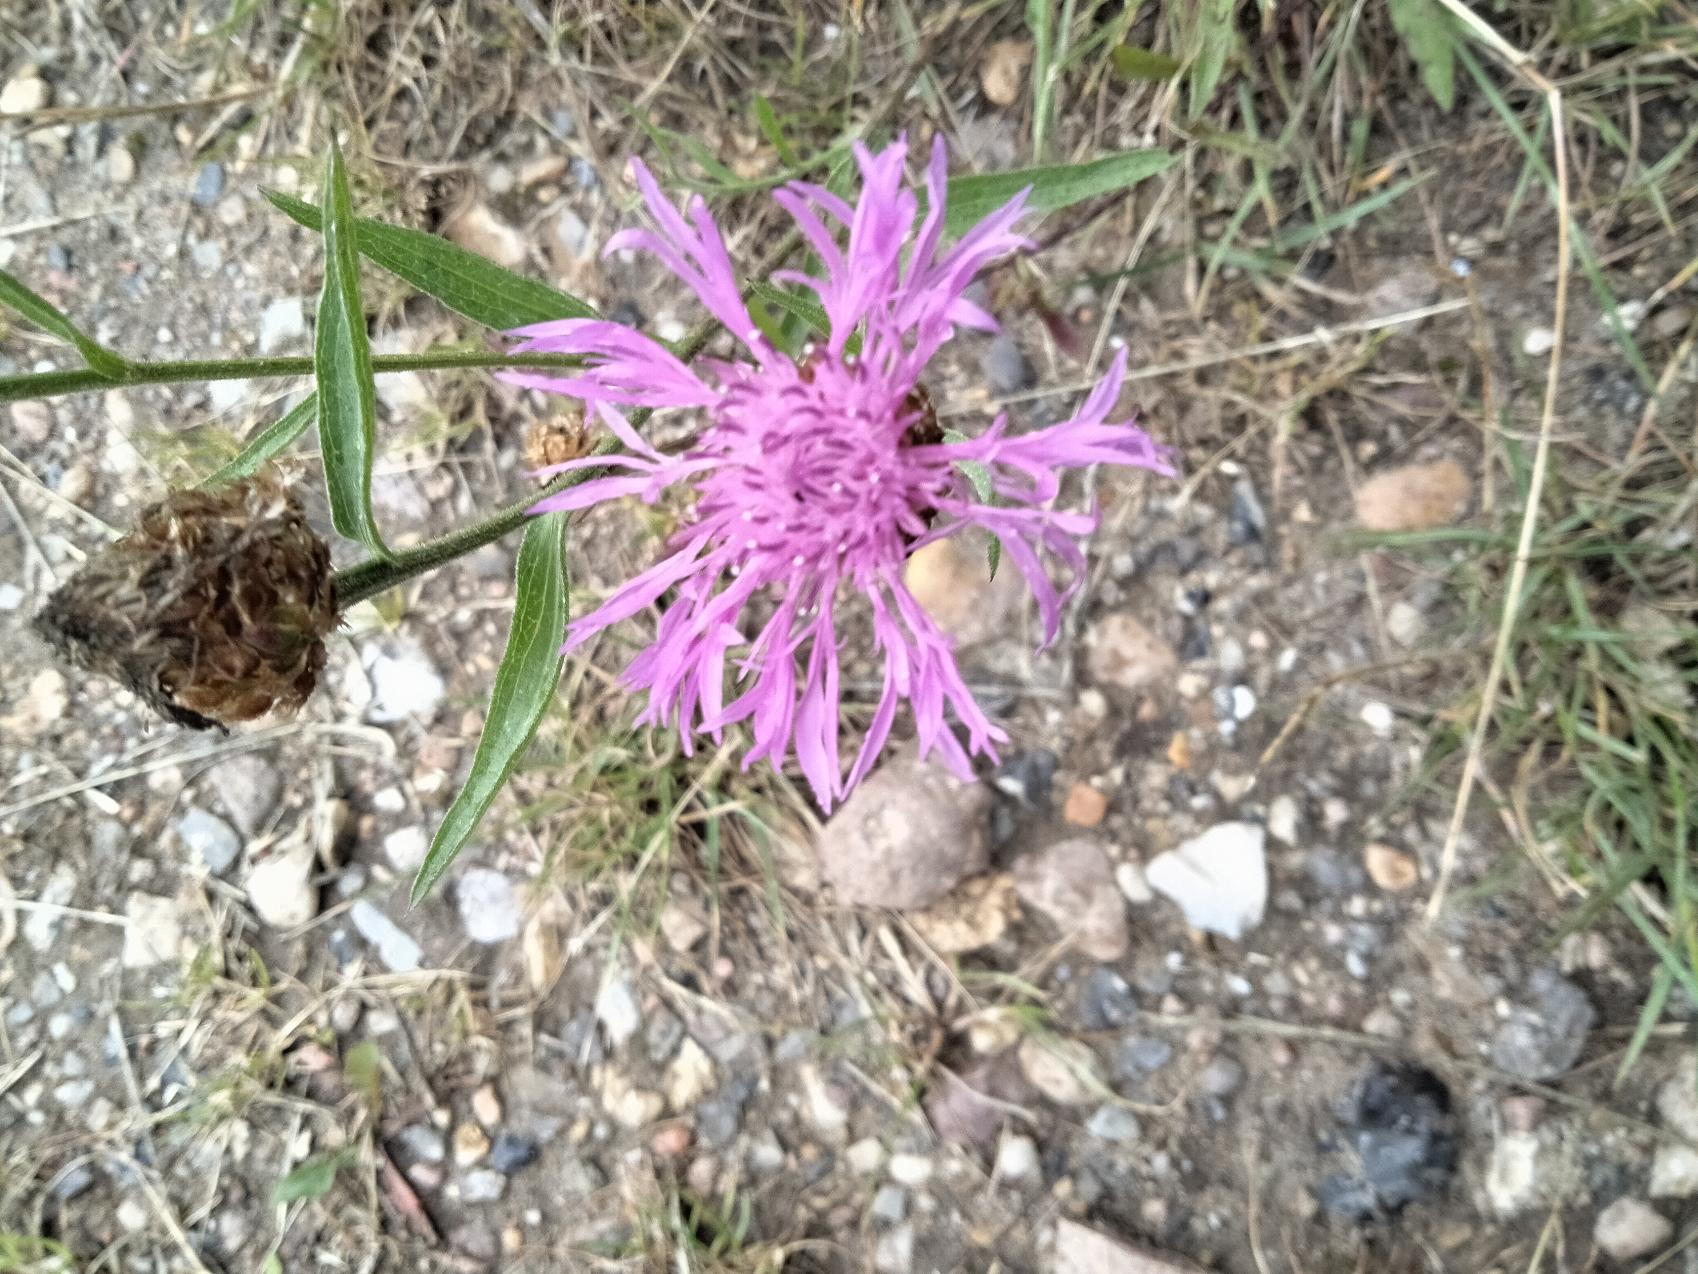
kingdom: Plantae
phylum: Tracheophyta
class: Magnoliopsida
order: Asterales
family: Asteraceae
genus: Centaurea
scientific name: Centaurea jacea
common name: Almindelig knopurt
